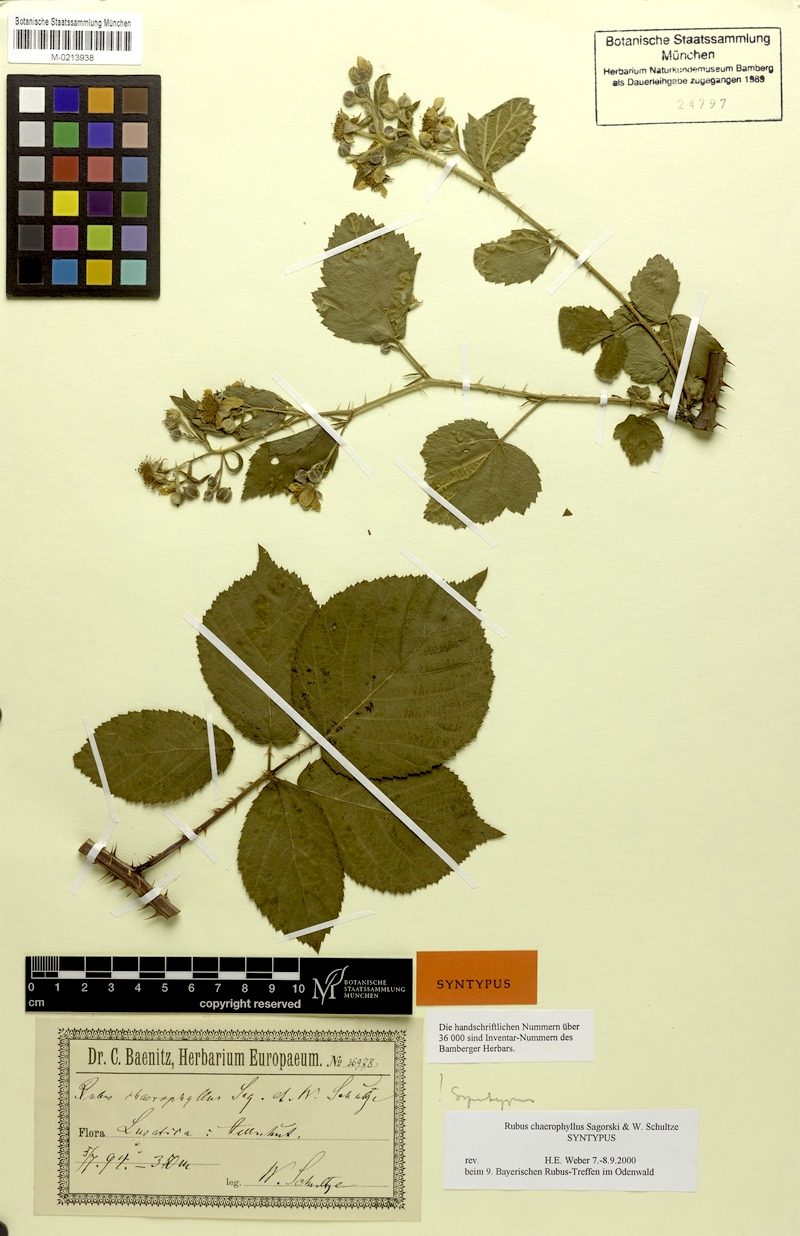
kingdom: Plantae
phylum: Tracheophyta
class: Magnoliopsida
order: Rosales
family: Rosaceae
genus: Rubus
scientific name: Rubus chaerophyllus
